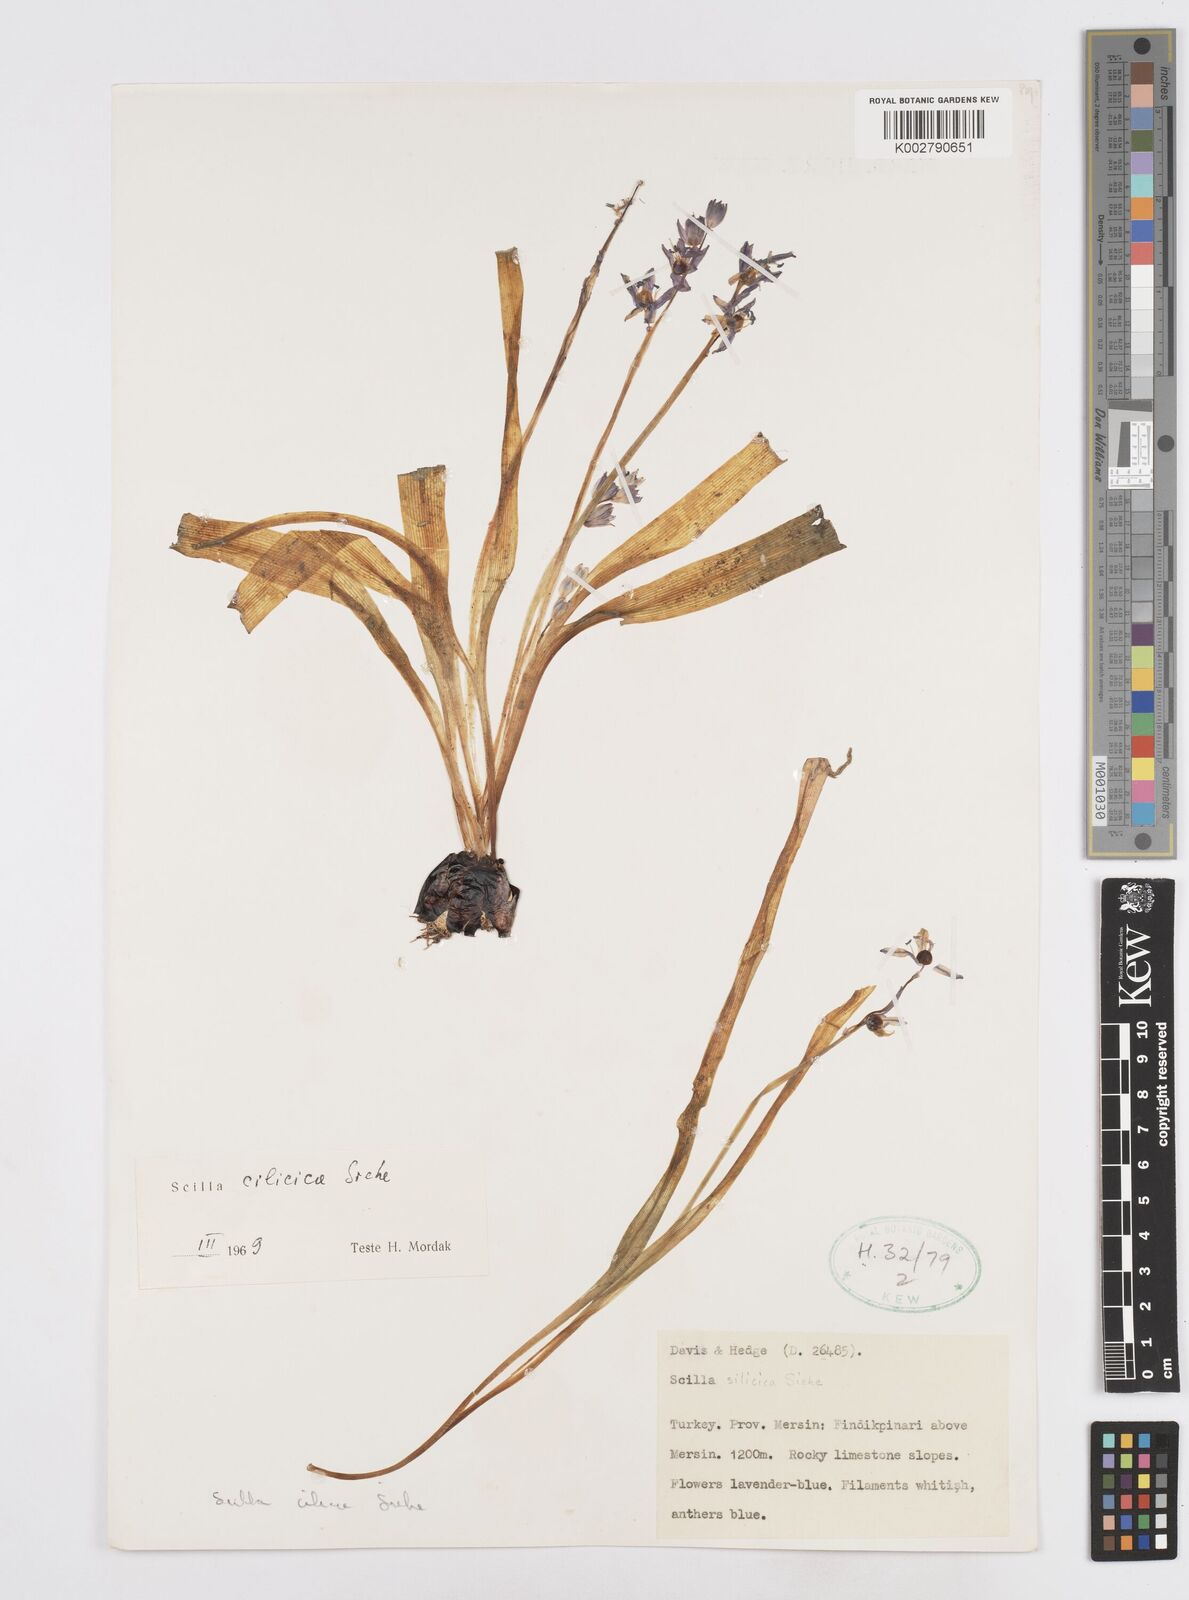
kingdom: Plantae
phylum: Tracheophyta
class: Liliopsida
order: Asparagales
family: Asparagaceae
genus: Scilla
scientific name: Scilla cilicica
